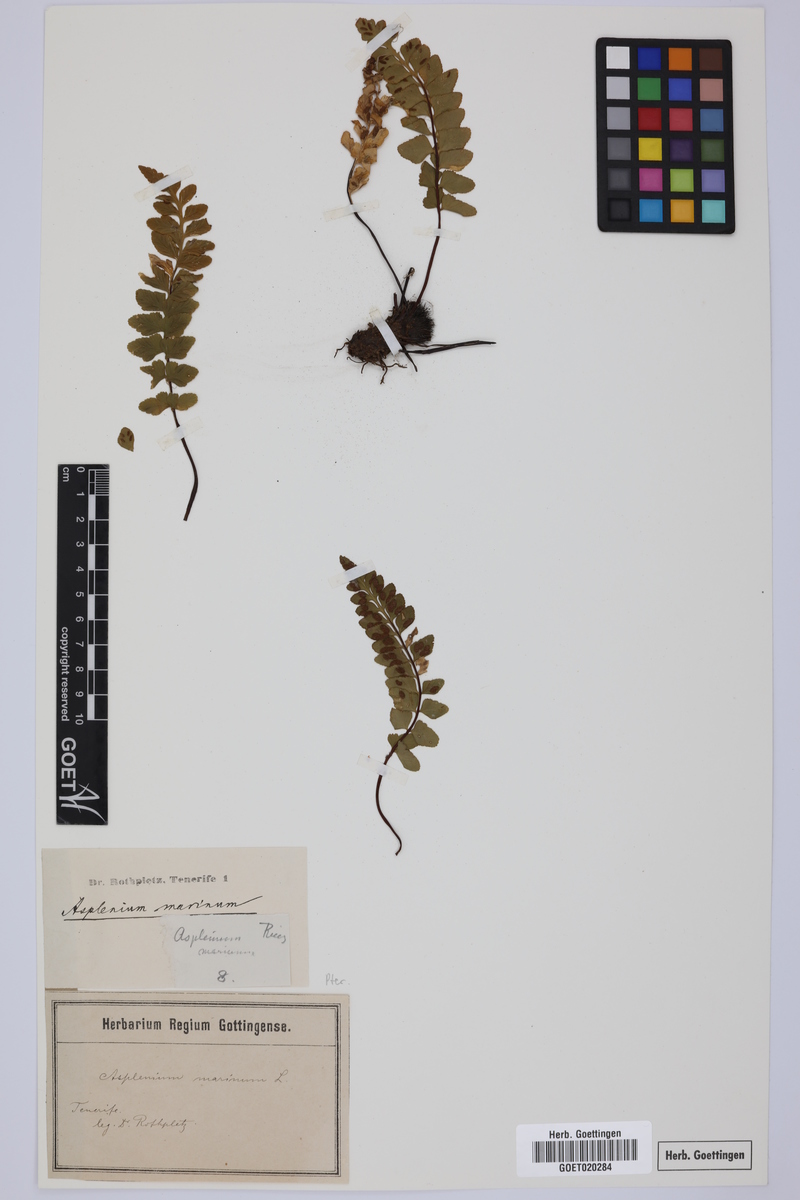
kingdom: Plantae
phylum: Tracheophyta
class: Polypodiopsida
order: Polypodiales
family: Aspleniaceae
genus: Asplenium
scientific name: Asplenium marinum
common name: Sea spleenwort
